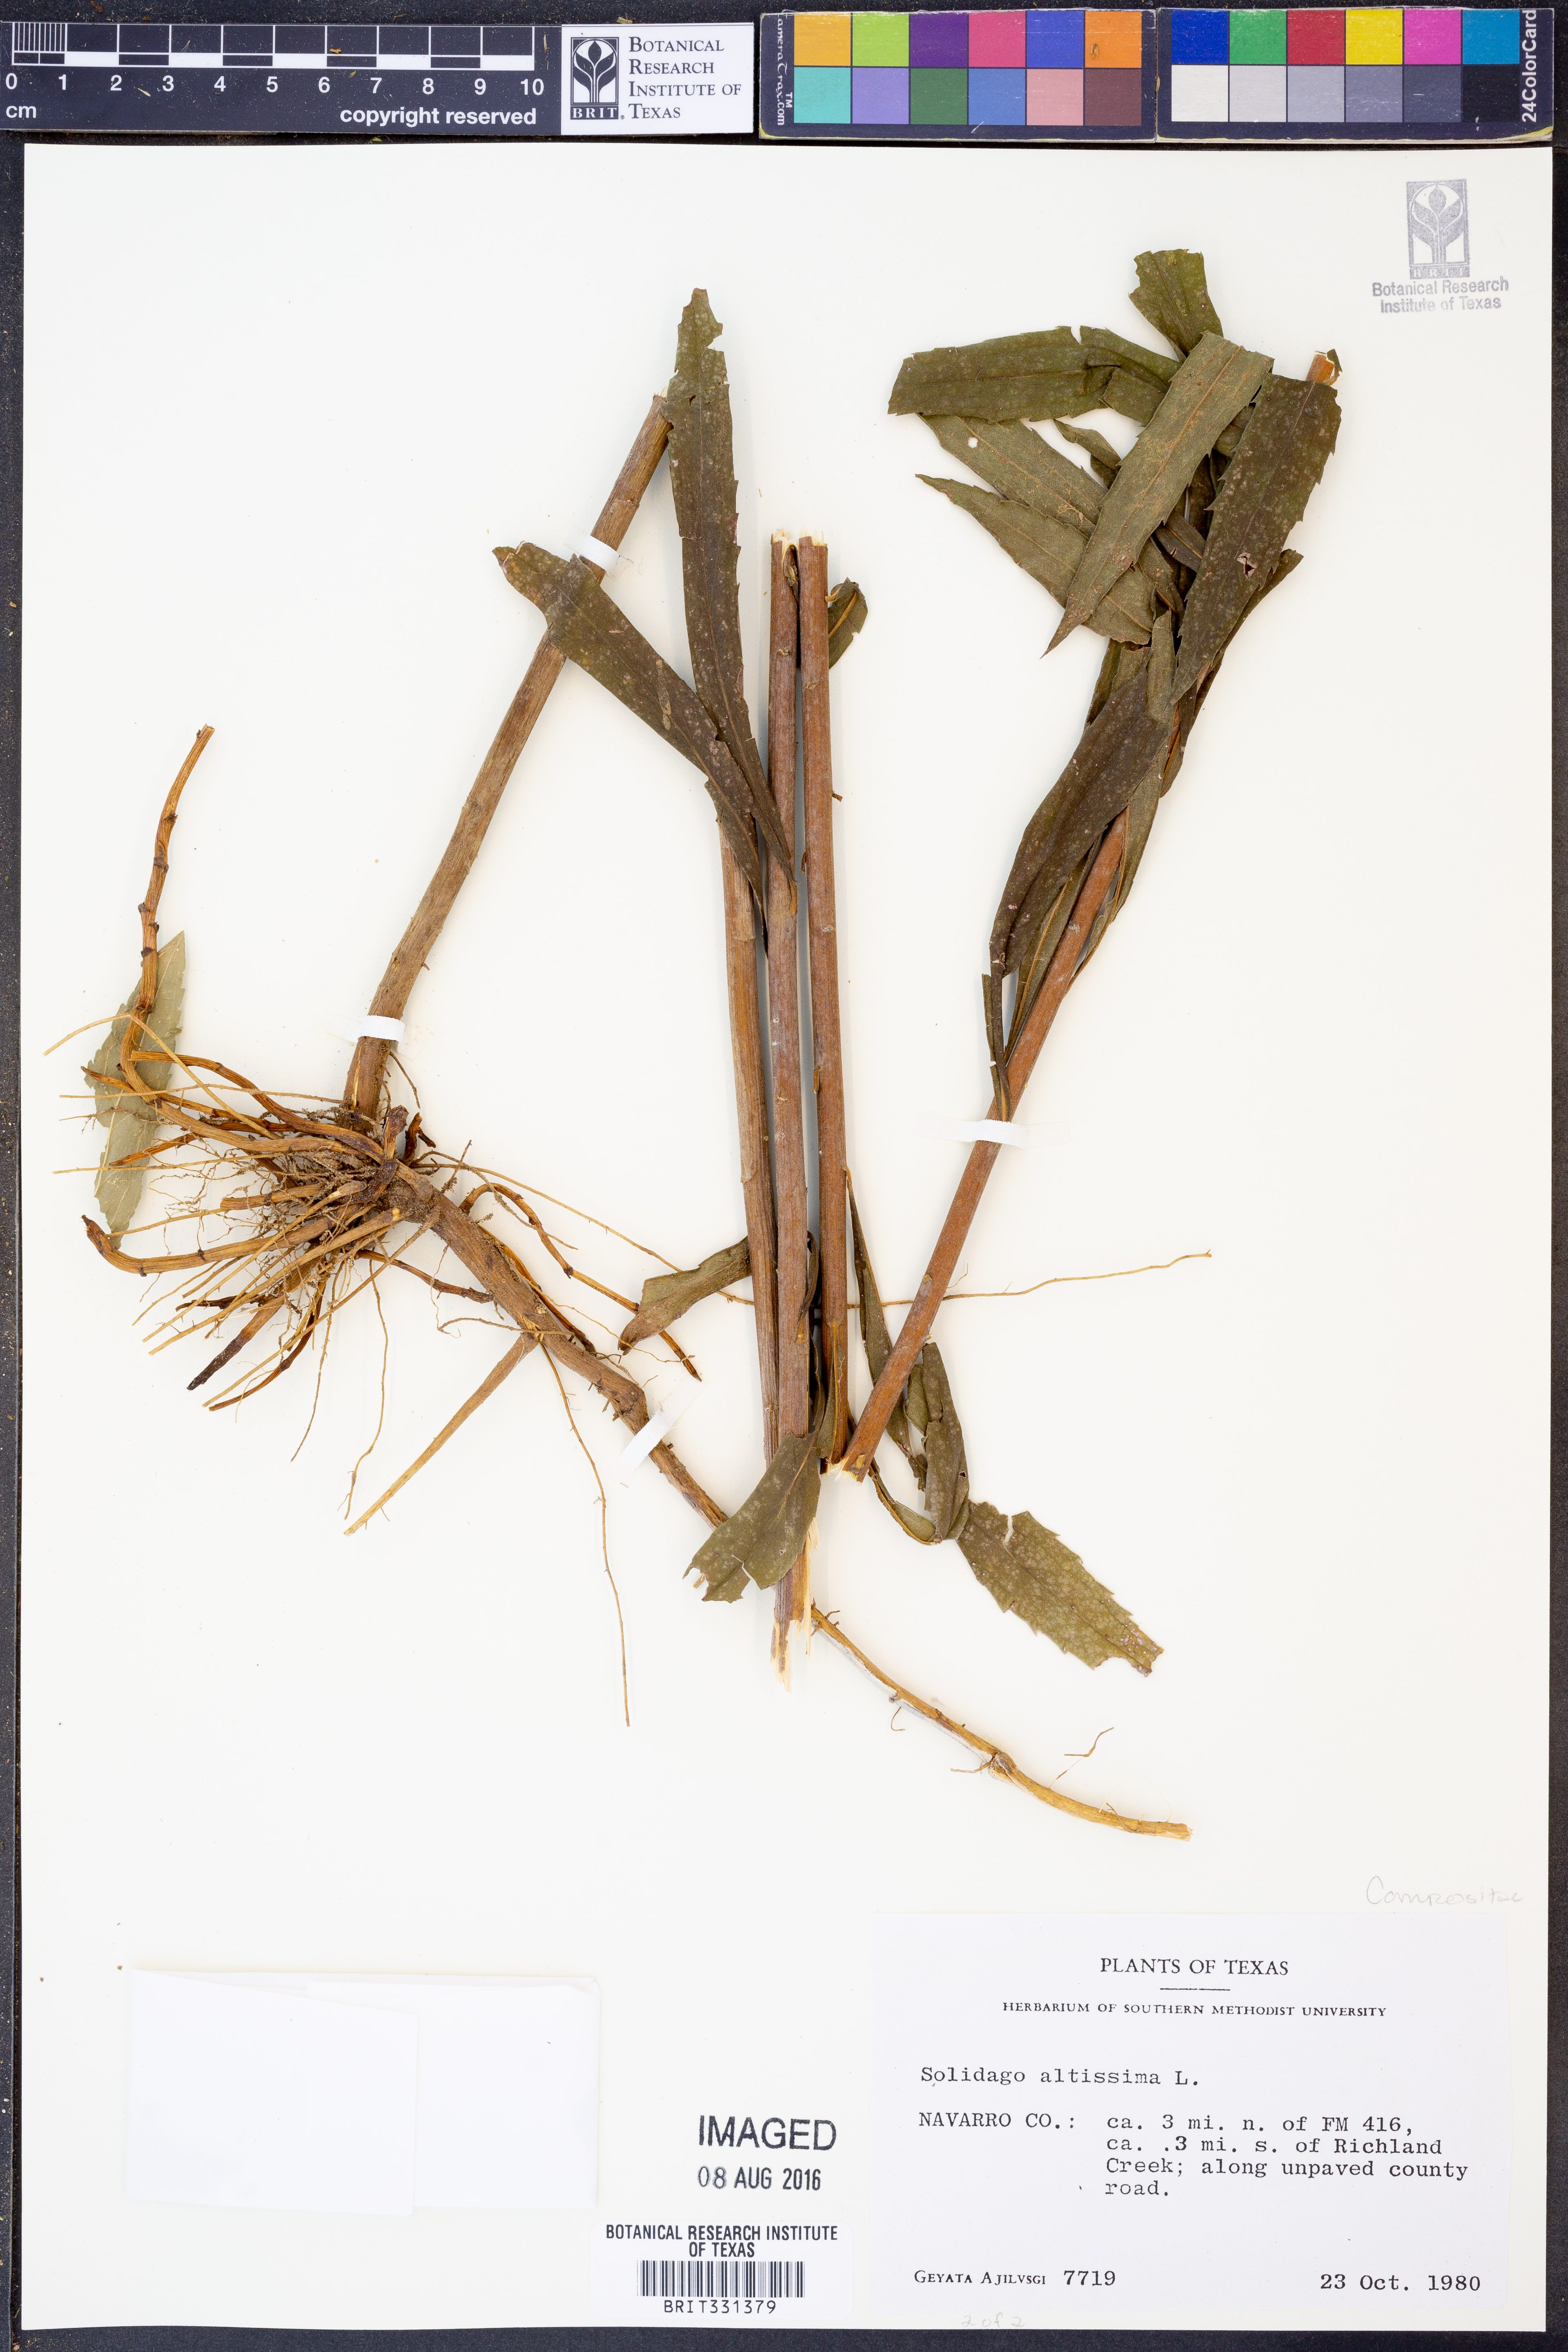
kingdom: Plantae
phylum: Tracheophyta
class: Magnoliopsida
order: Asterales
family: Asteraceae
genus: Solidago
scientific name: Solidago altissima
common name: Late goldenrod
